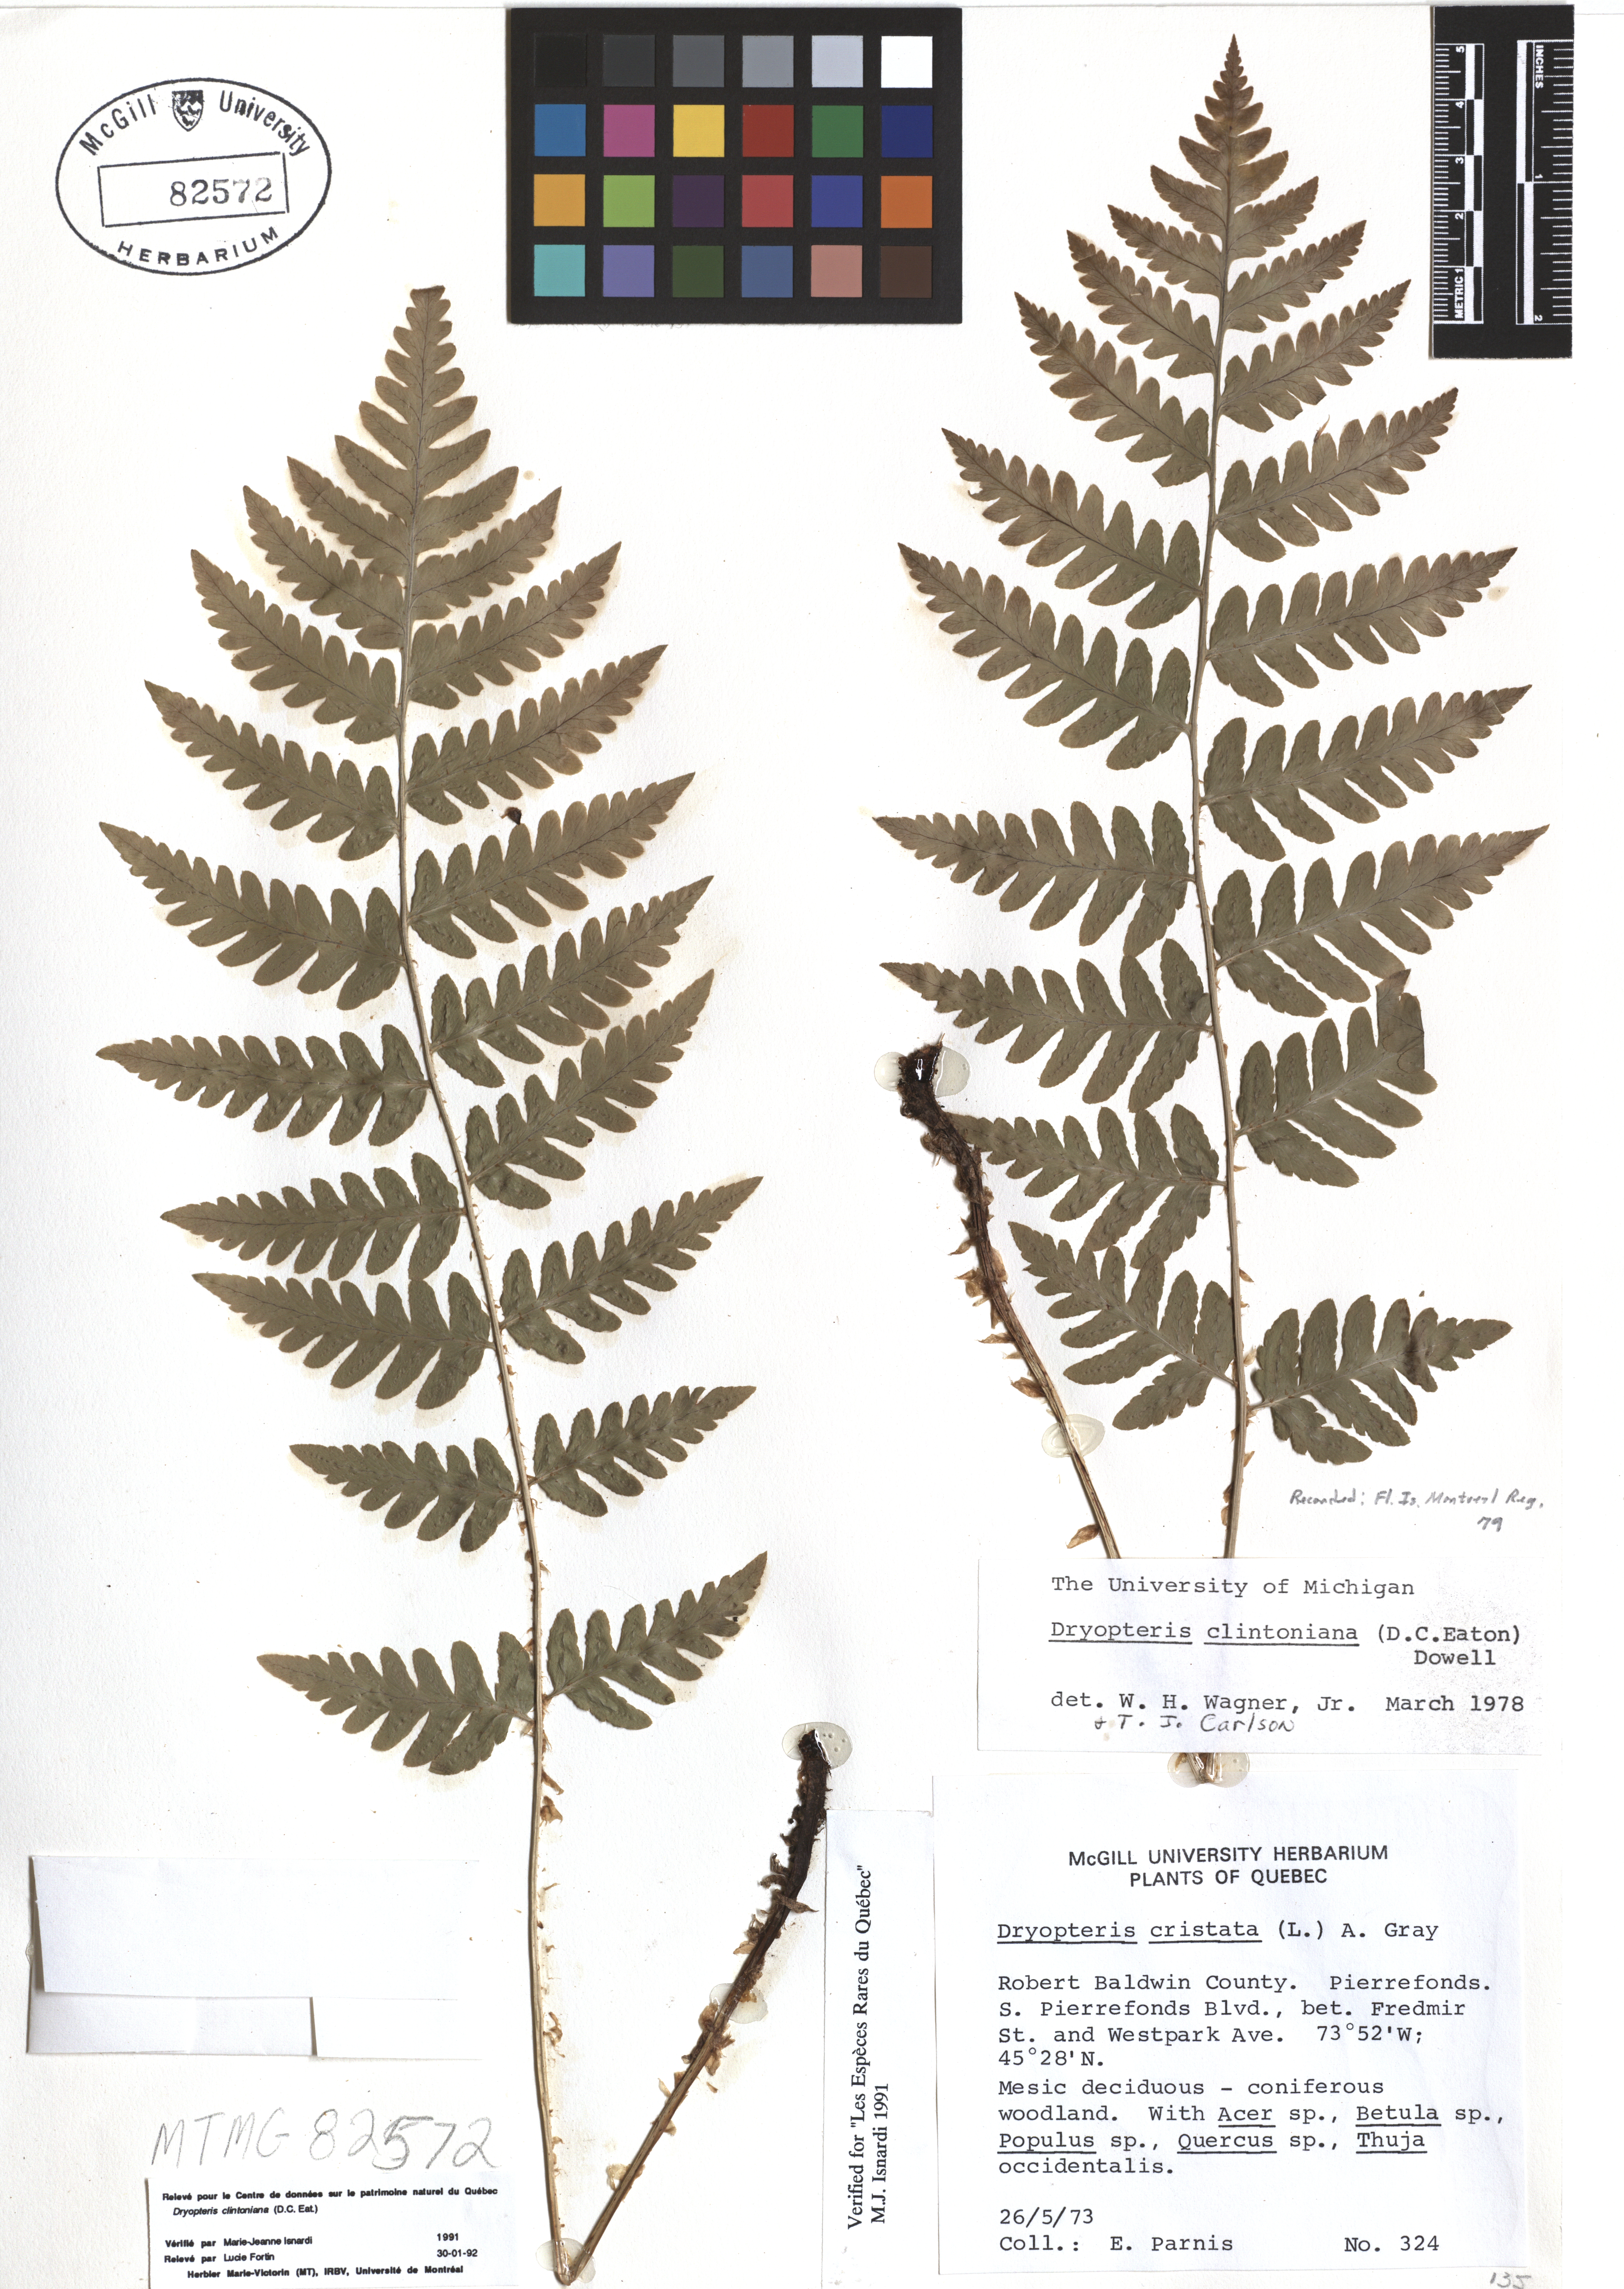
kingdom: Plantae
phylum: Tracheophyta
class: Polypodiopsida
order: Polypodiales
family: Dryopteridaceae
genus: Dryopteris
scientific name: Dryopteris clintoniana
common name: Clinton's wood fern
